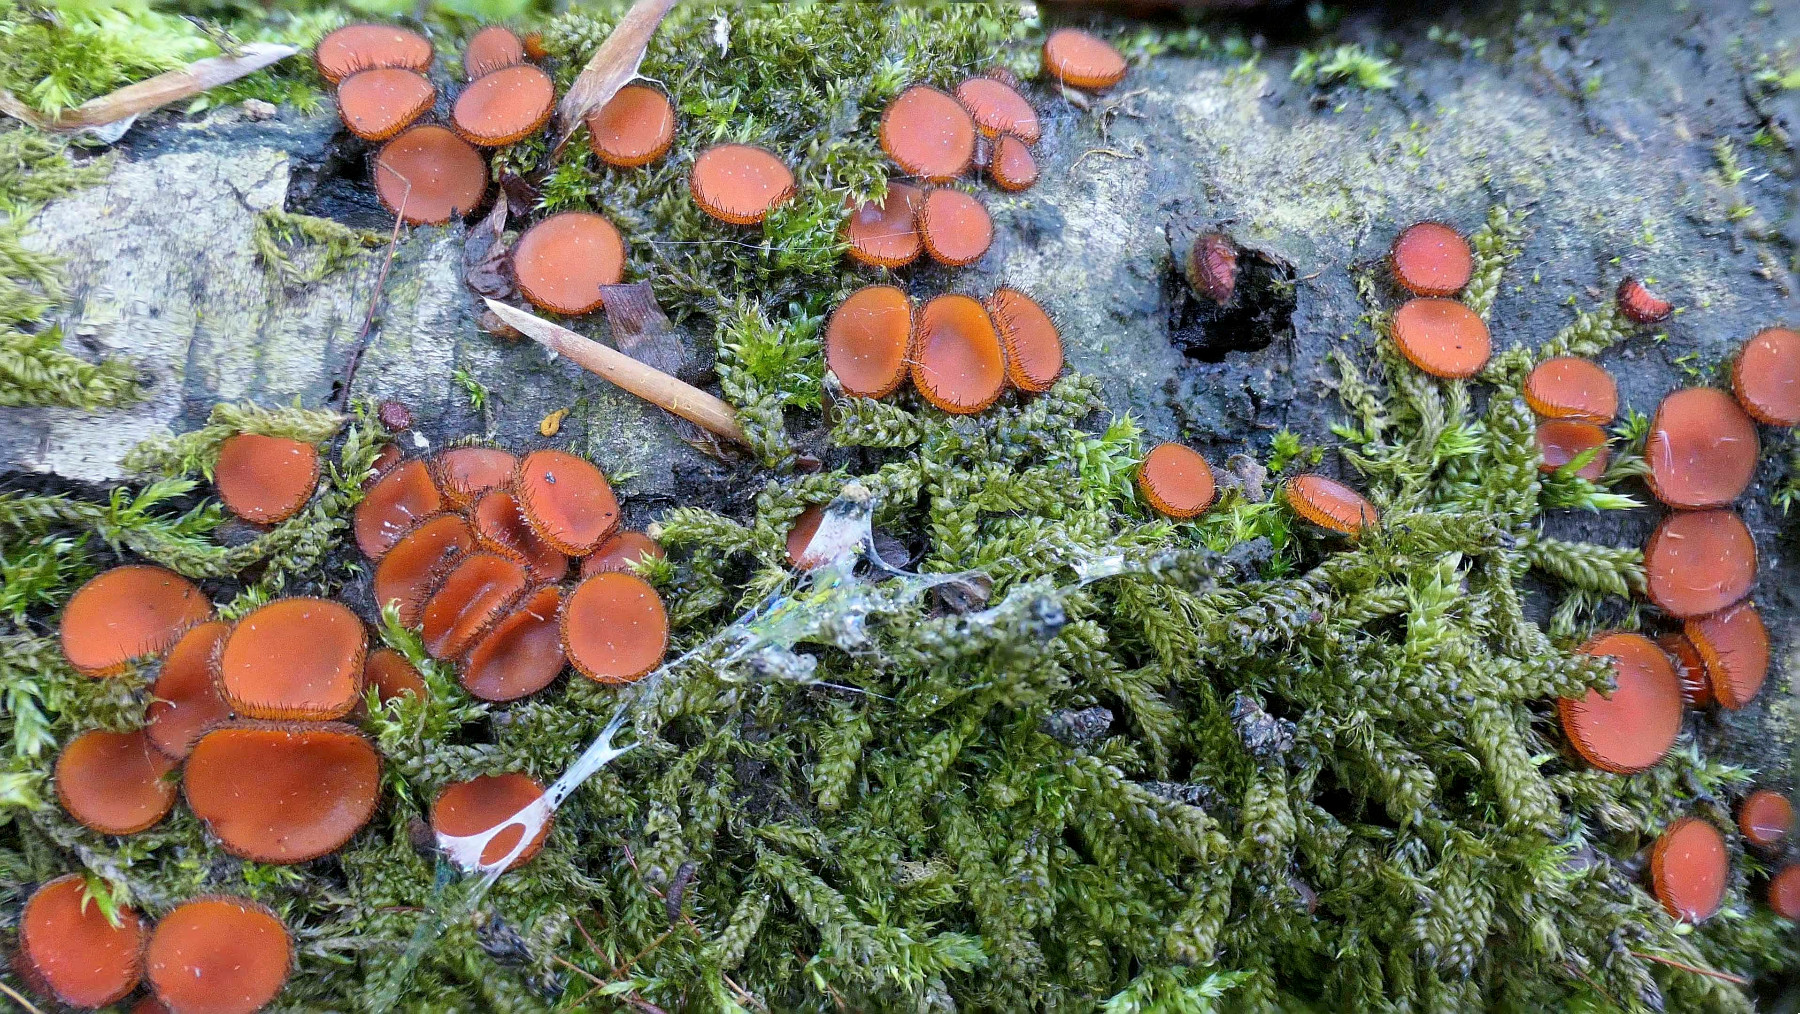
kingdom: Fungi
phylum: Ascomycota
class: Pezizomycetes
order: Pezizales
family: Pyronemataceae
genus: Scutellinia
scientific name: Scutellinia scutellata
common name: frynset skjoldbæger
